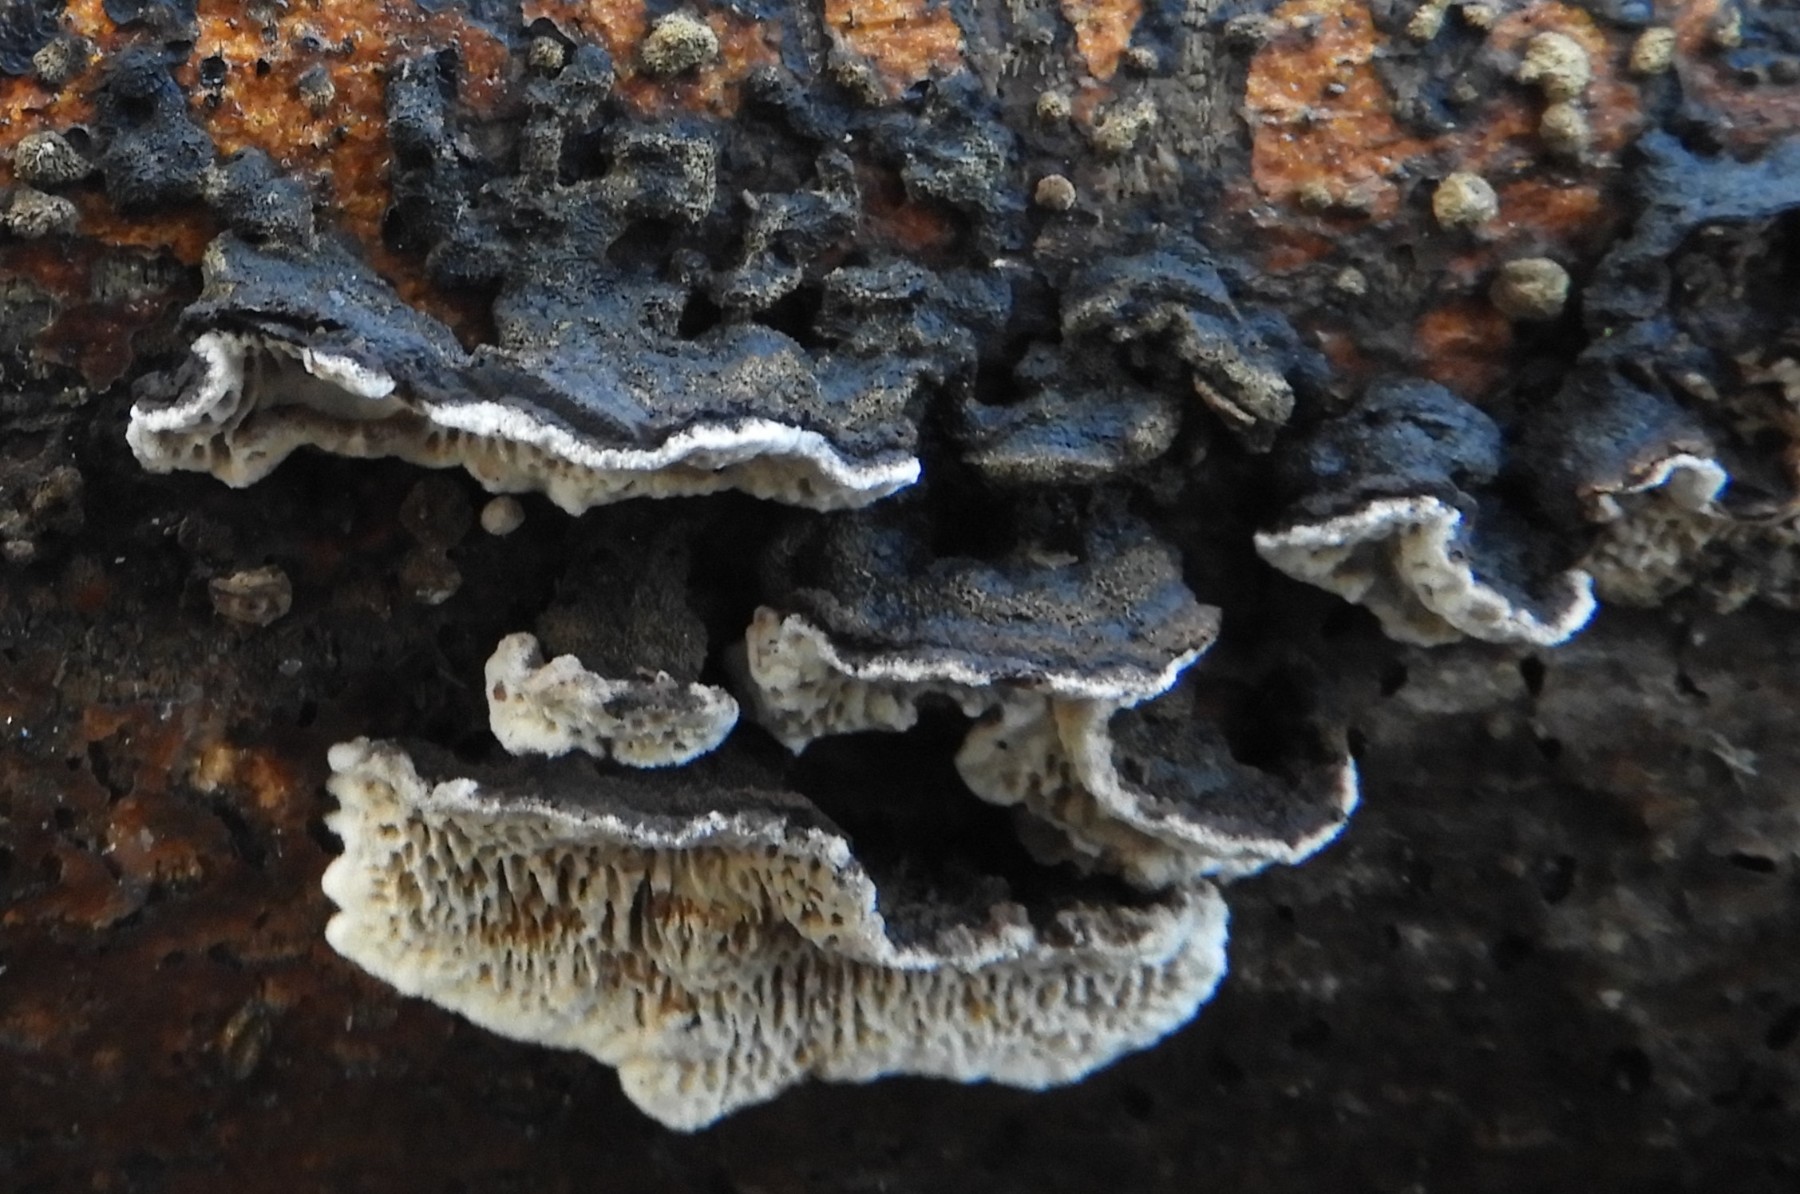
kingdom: Fungi
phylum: Basidiomycota
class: Agaricomycetes
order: Polyporales
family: Polyporaceae
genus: Podofomes
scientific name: Podofomes mollis
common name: blød begporesvamp
